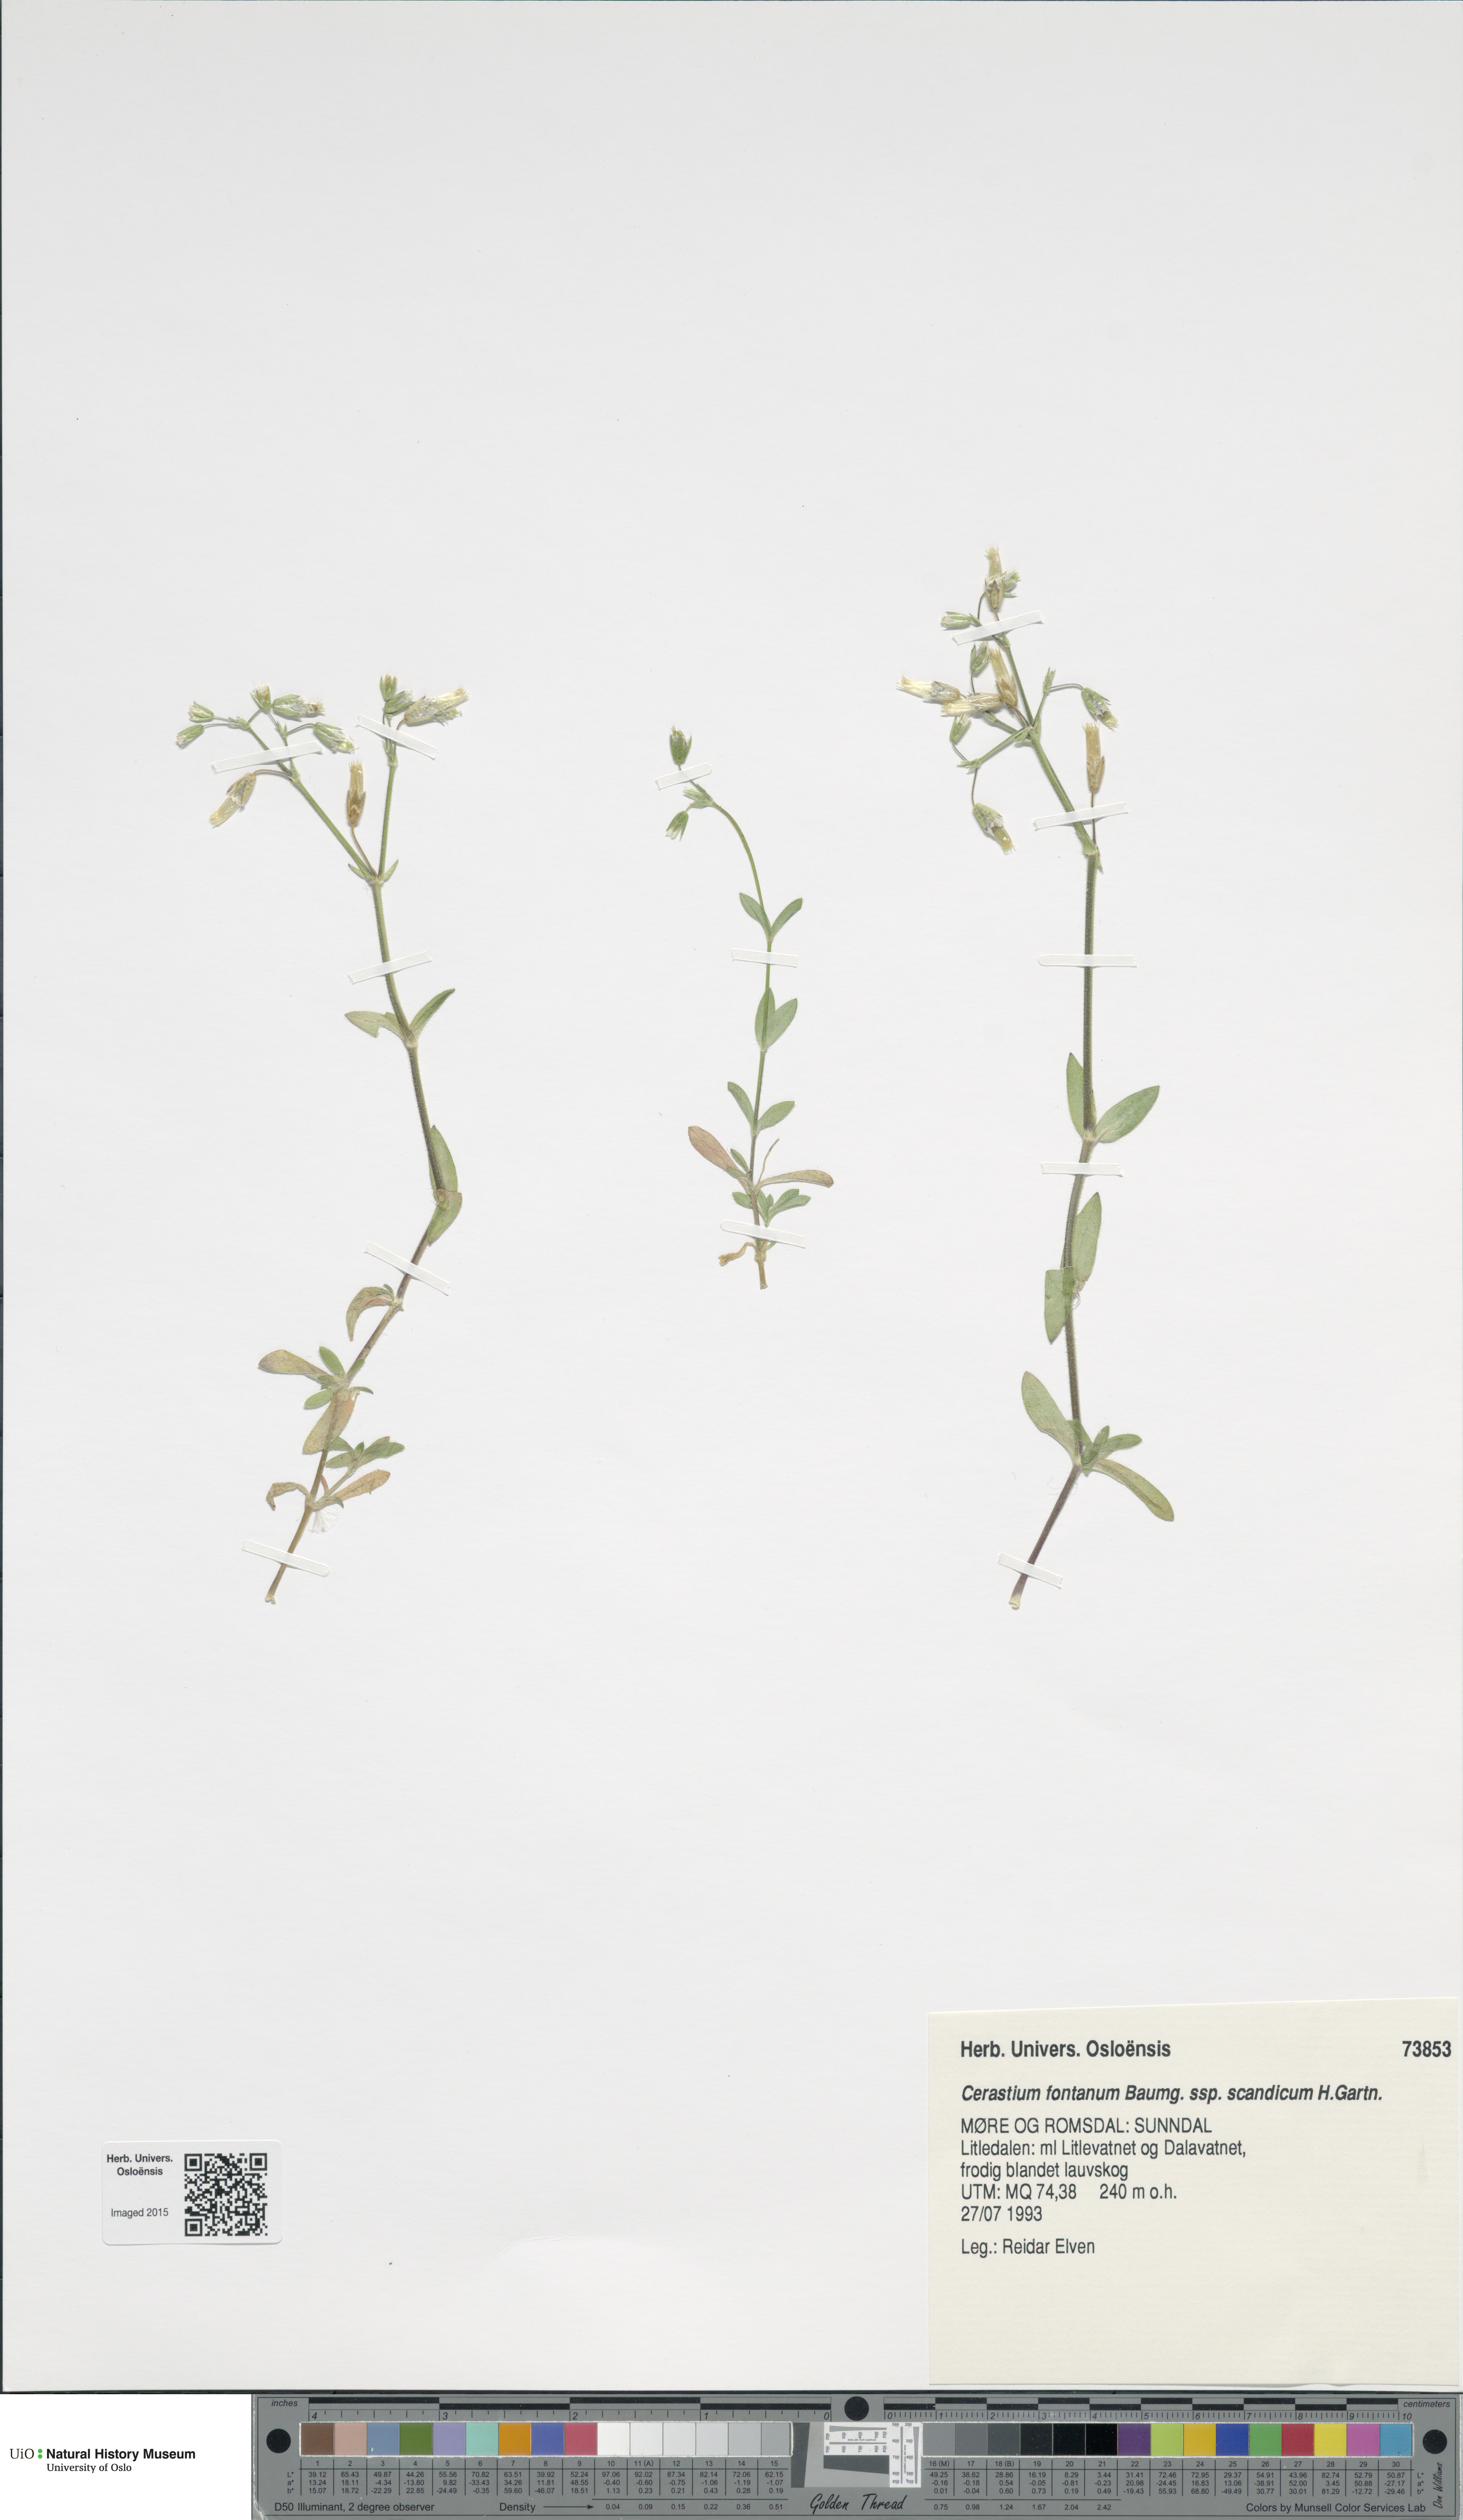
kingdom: Plantae
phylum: Tracheophyta
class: Magnoliopsida
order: Caryophyllales
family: Caryophyllaceae
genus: Cerastium
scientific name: Cerastium fontanum
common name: Common mouse-ear
